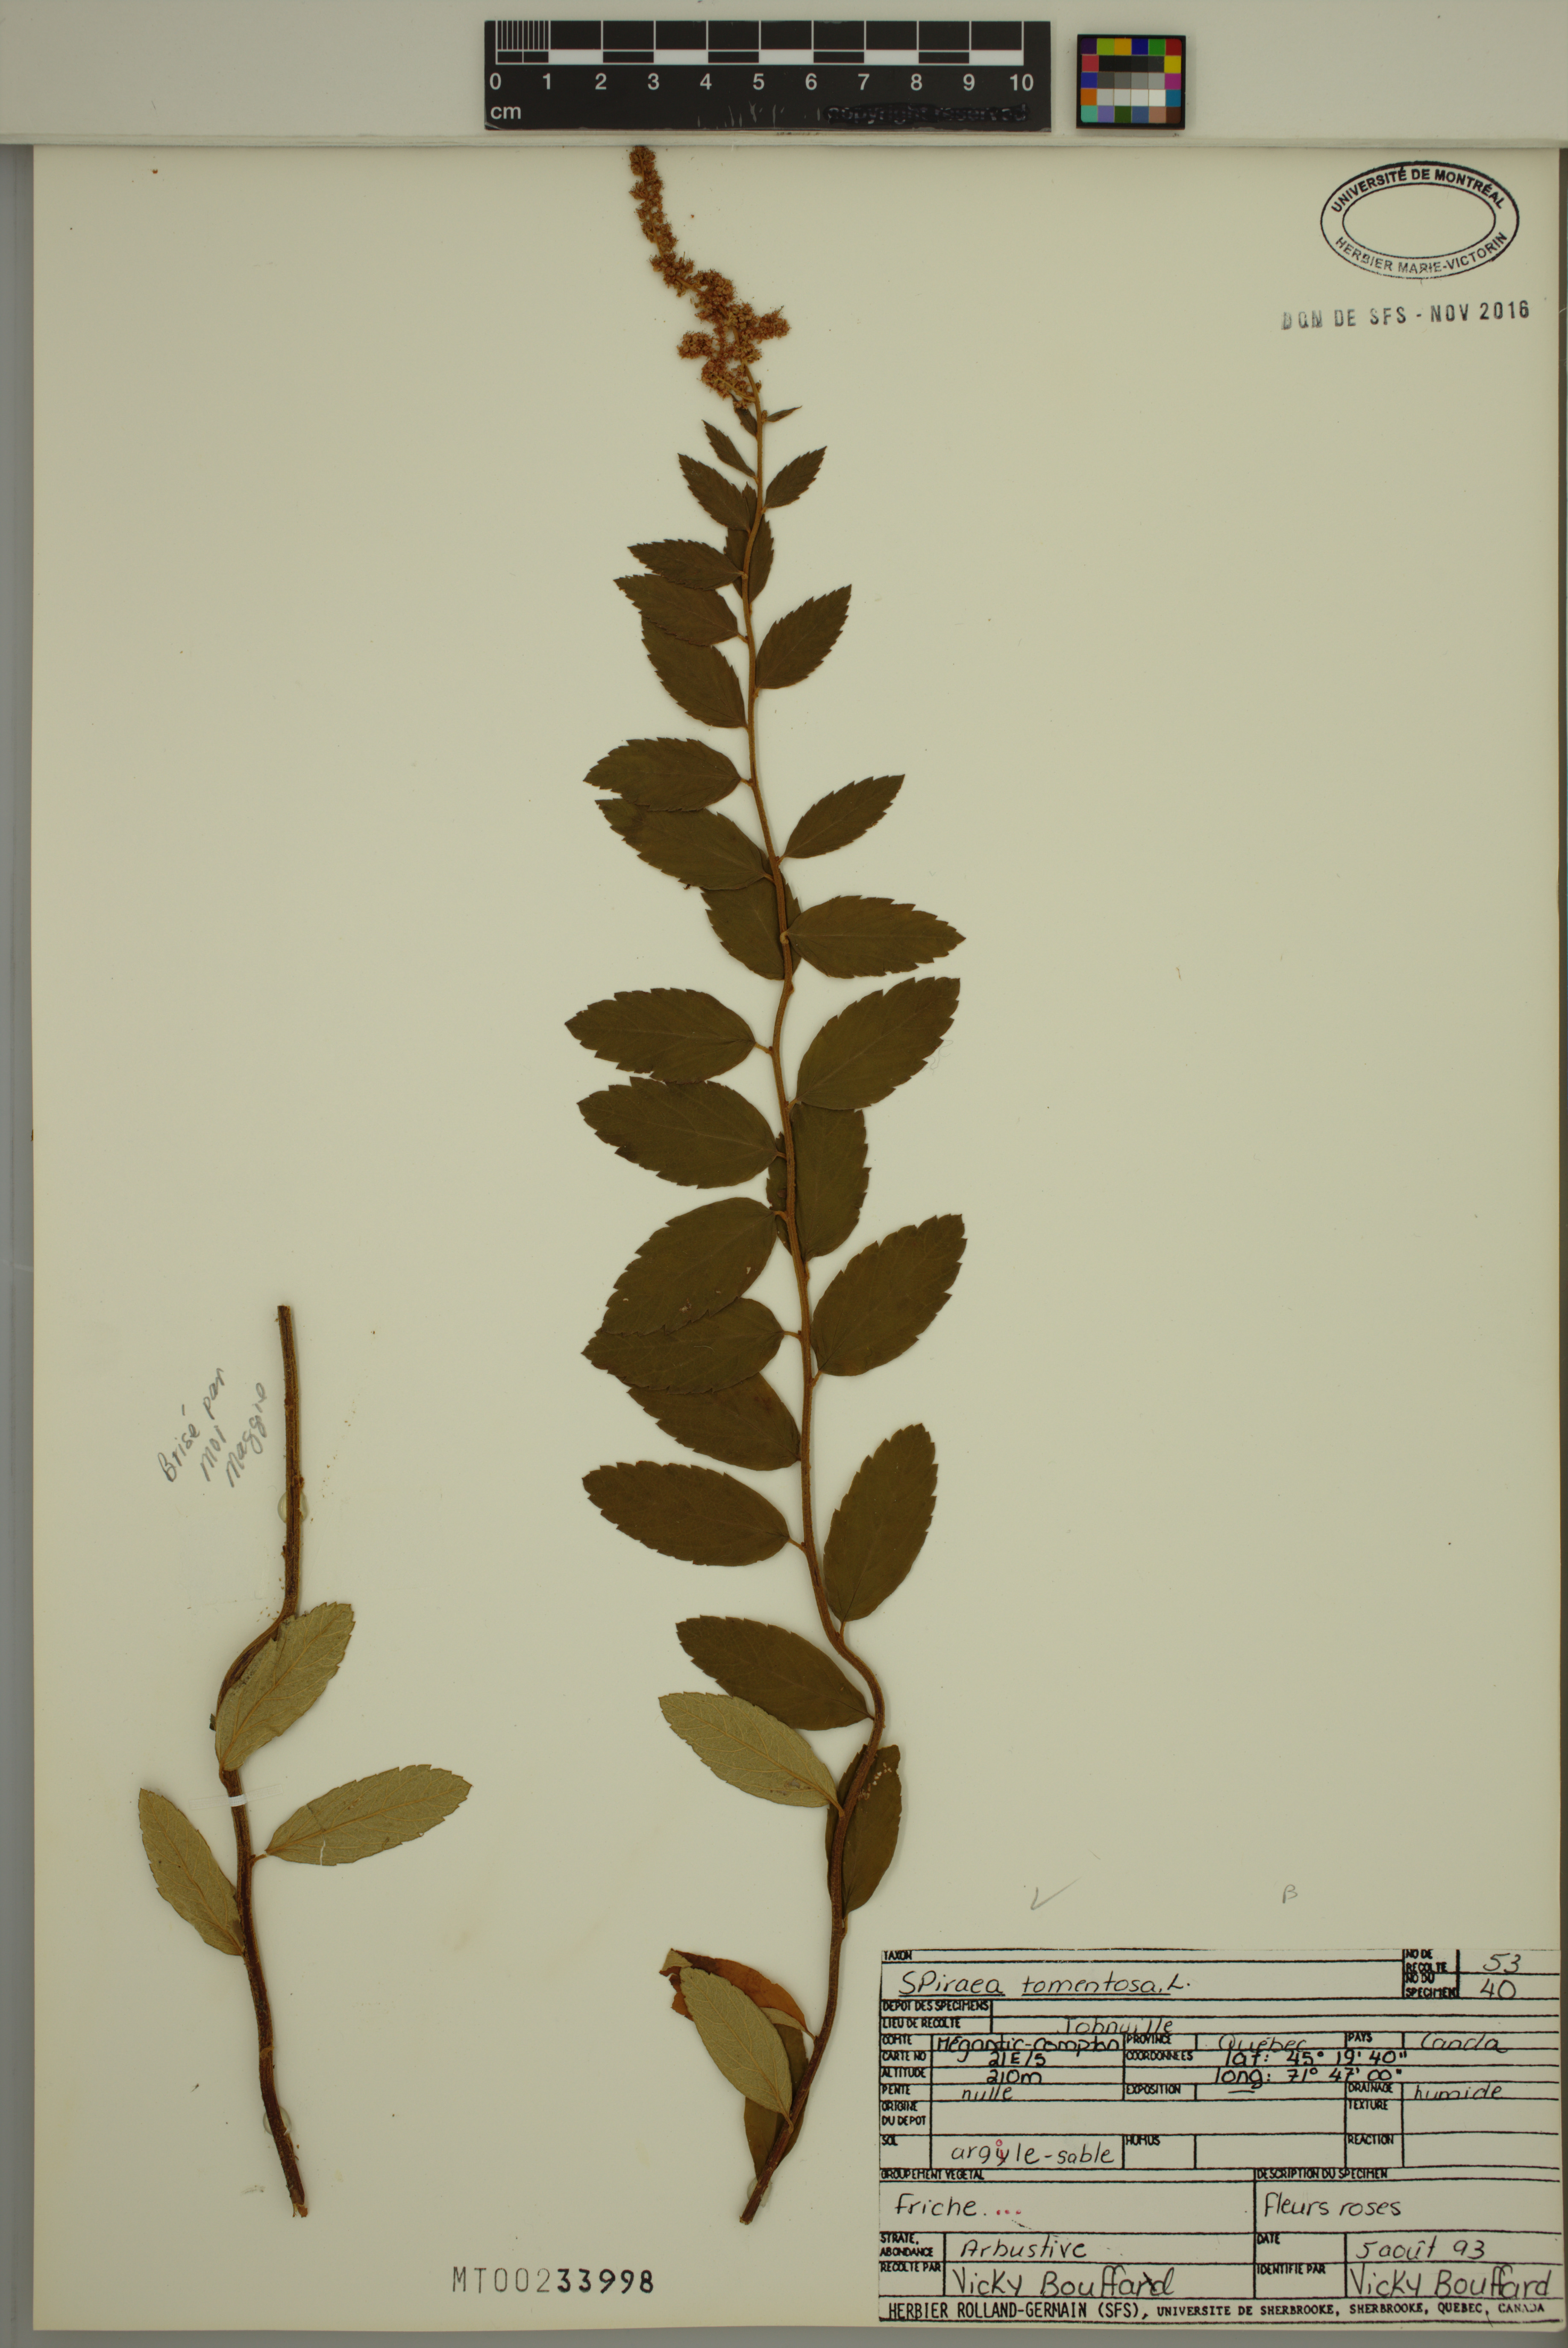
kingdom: Plantae
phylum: Tracheophyta
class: Magnoliopsida
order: Rosales
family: Rosaceae
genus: Spiraea
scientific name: Spiraea tomentosa
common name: Hardhack
